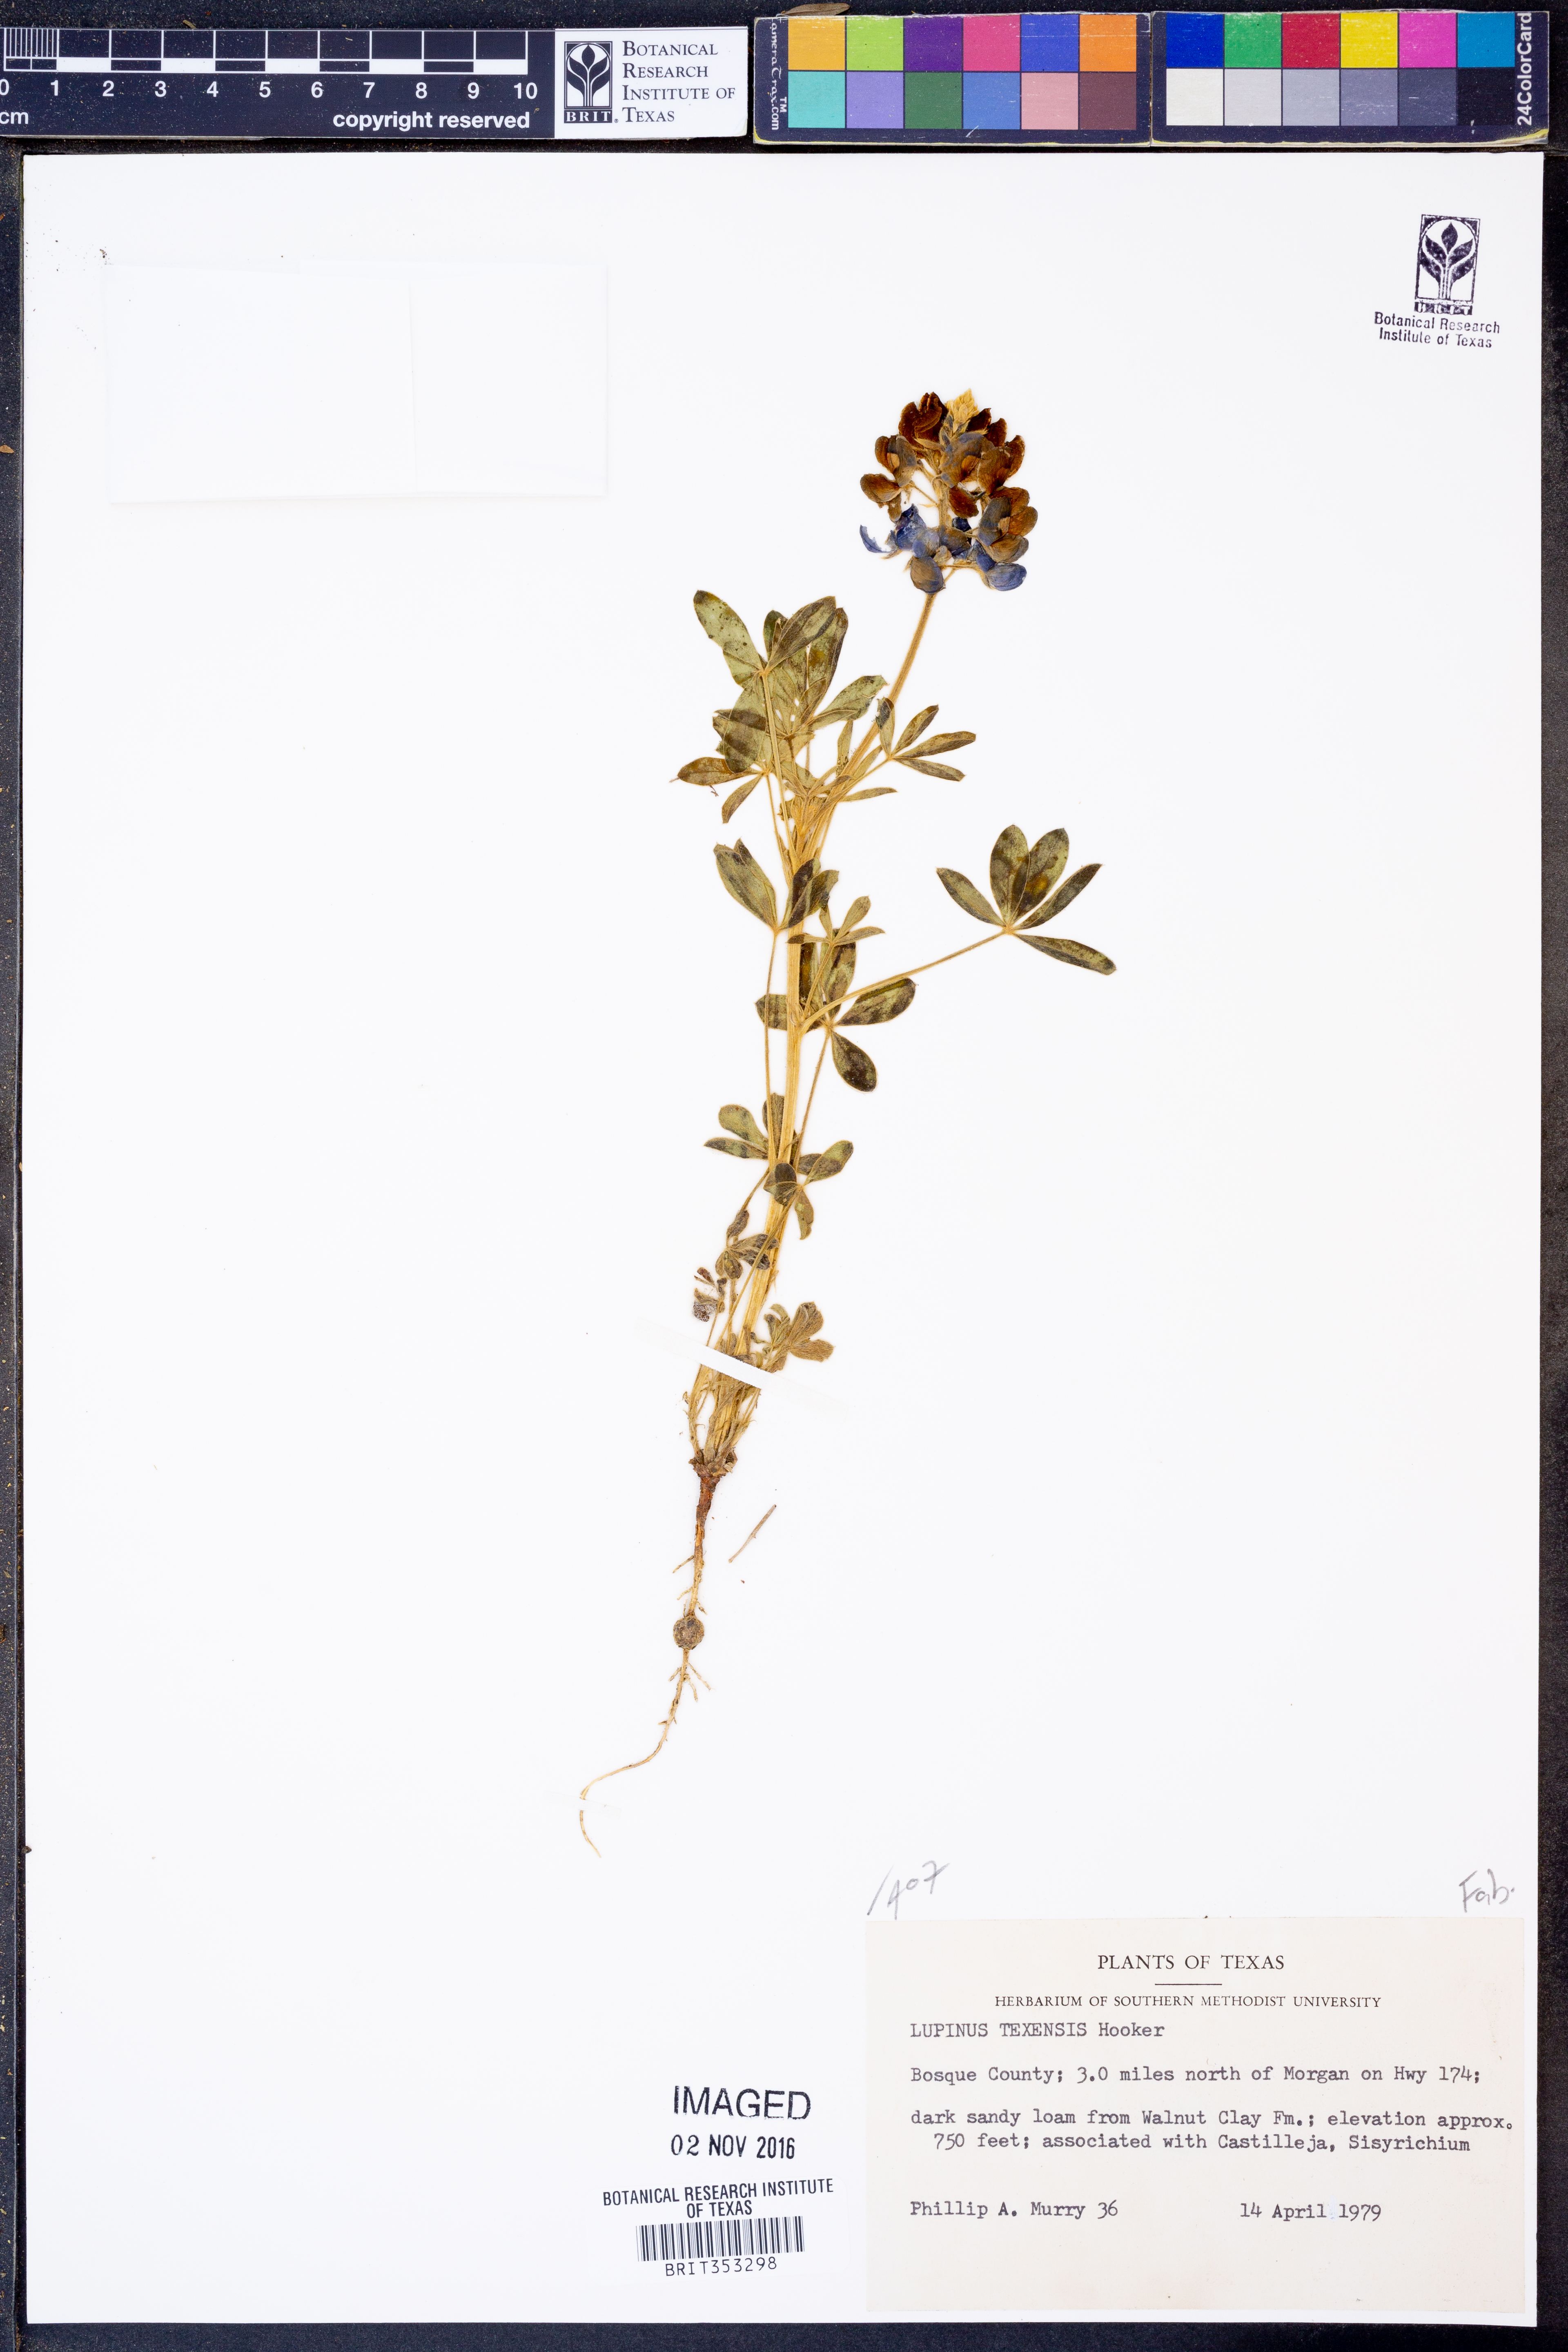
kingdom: Plantae
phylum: Tracheophyta
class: Magnoliopsida
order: Fabales
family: Fabaceae
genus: Lupinus
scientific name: Lupinus texensis
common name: Texas bluebonnet
